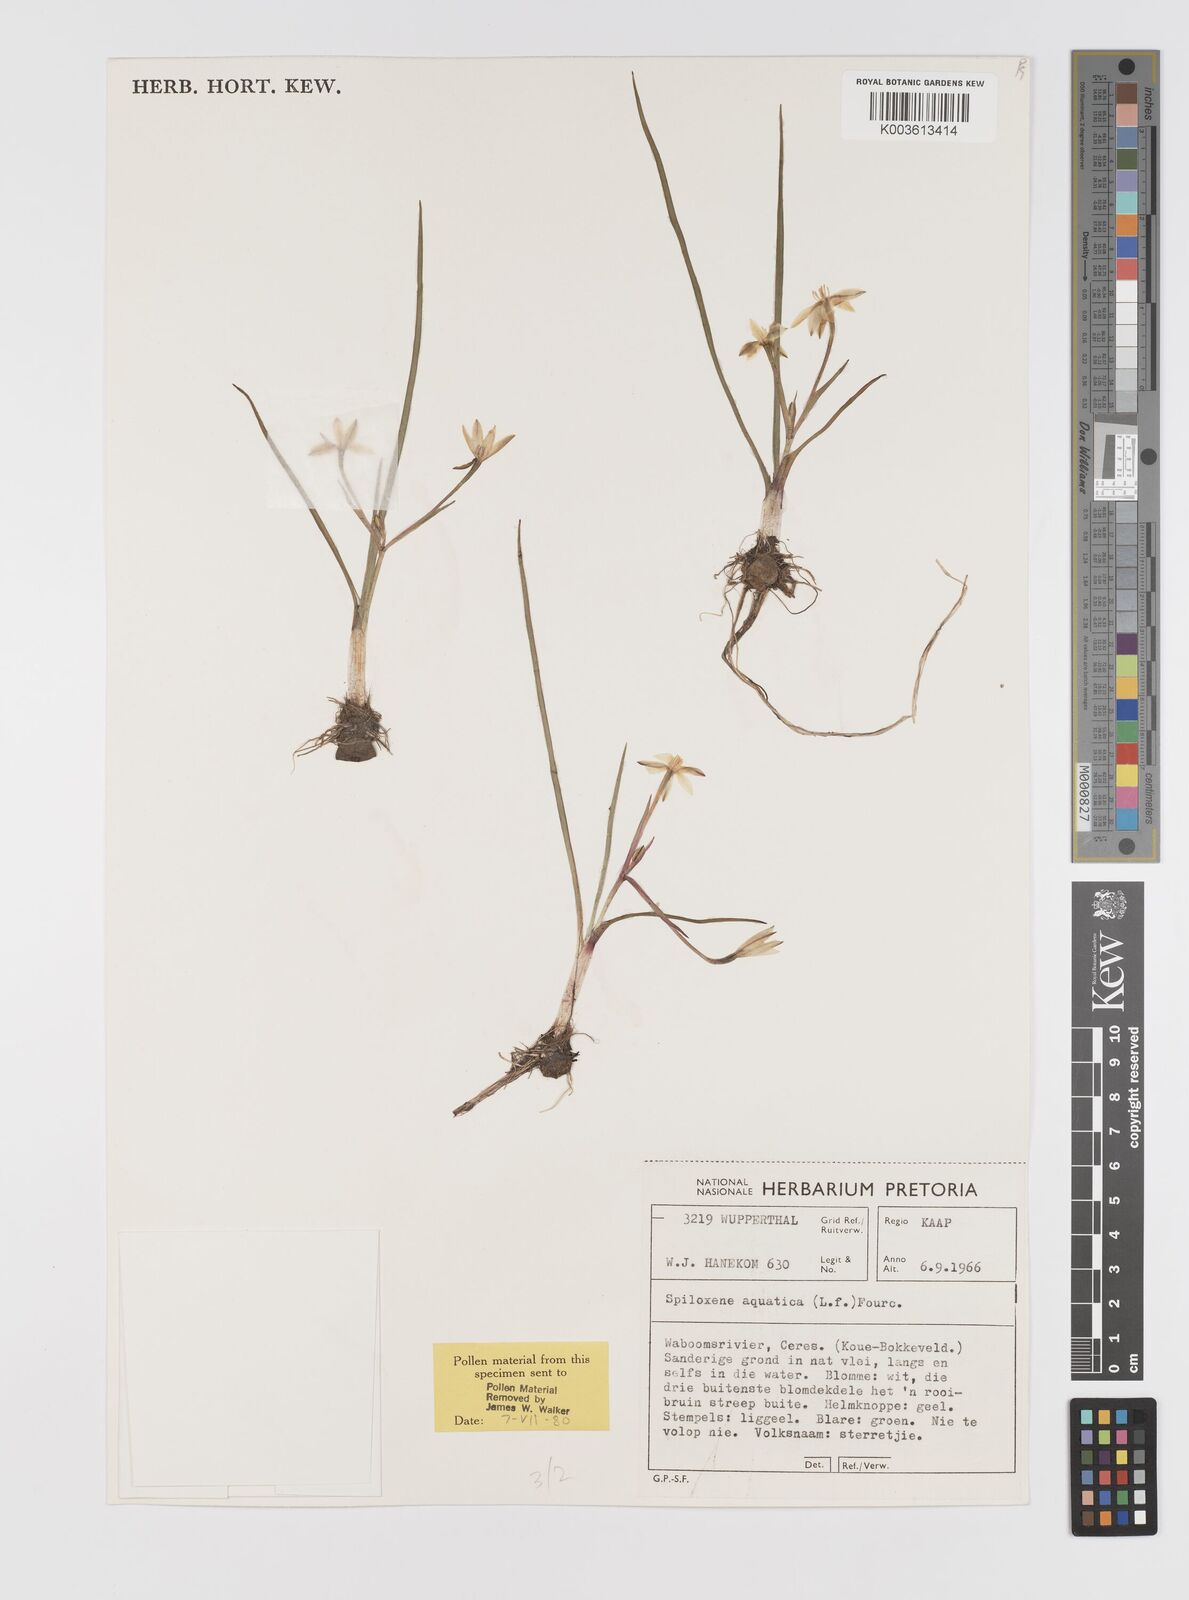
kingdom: Plantae
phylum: Tracheophyta
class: Liliopsida
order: Asparagales
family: Hypoxidaceae
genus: Pauridia
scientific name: Pauridia aquatica
